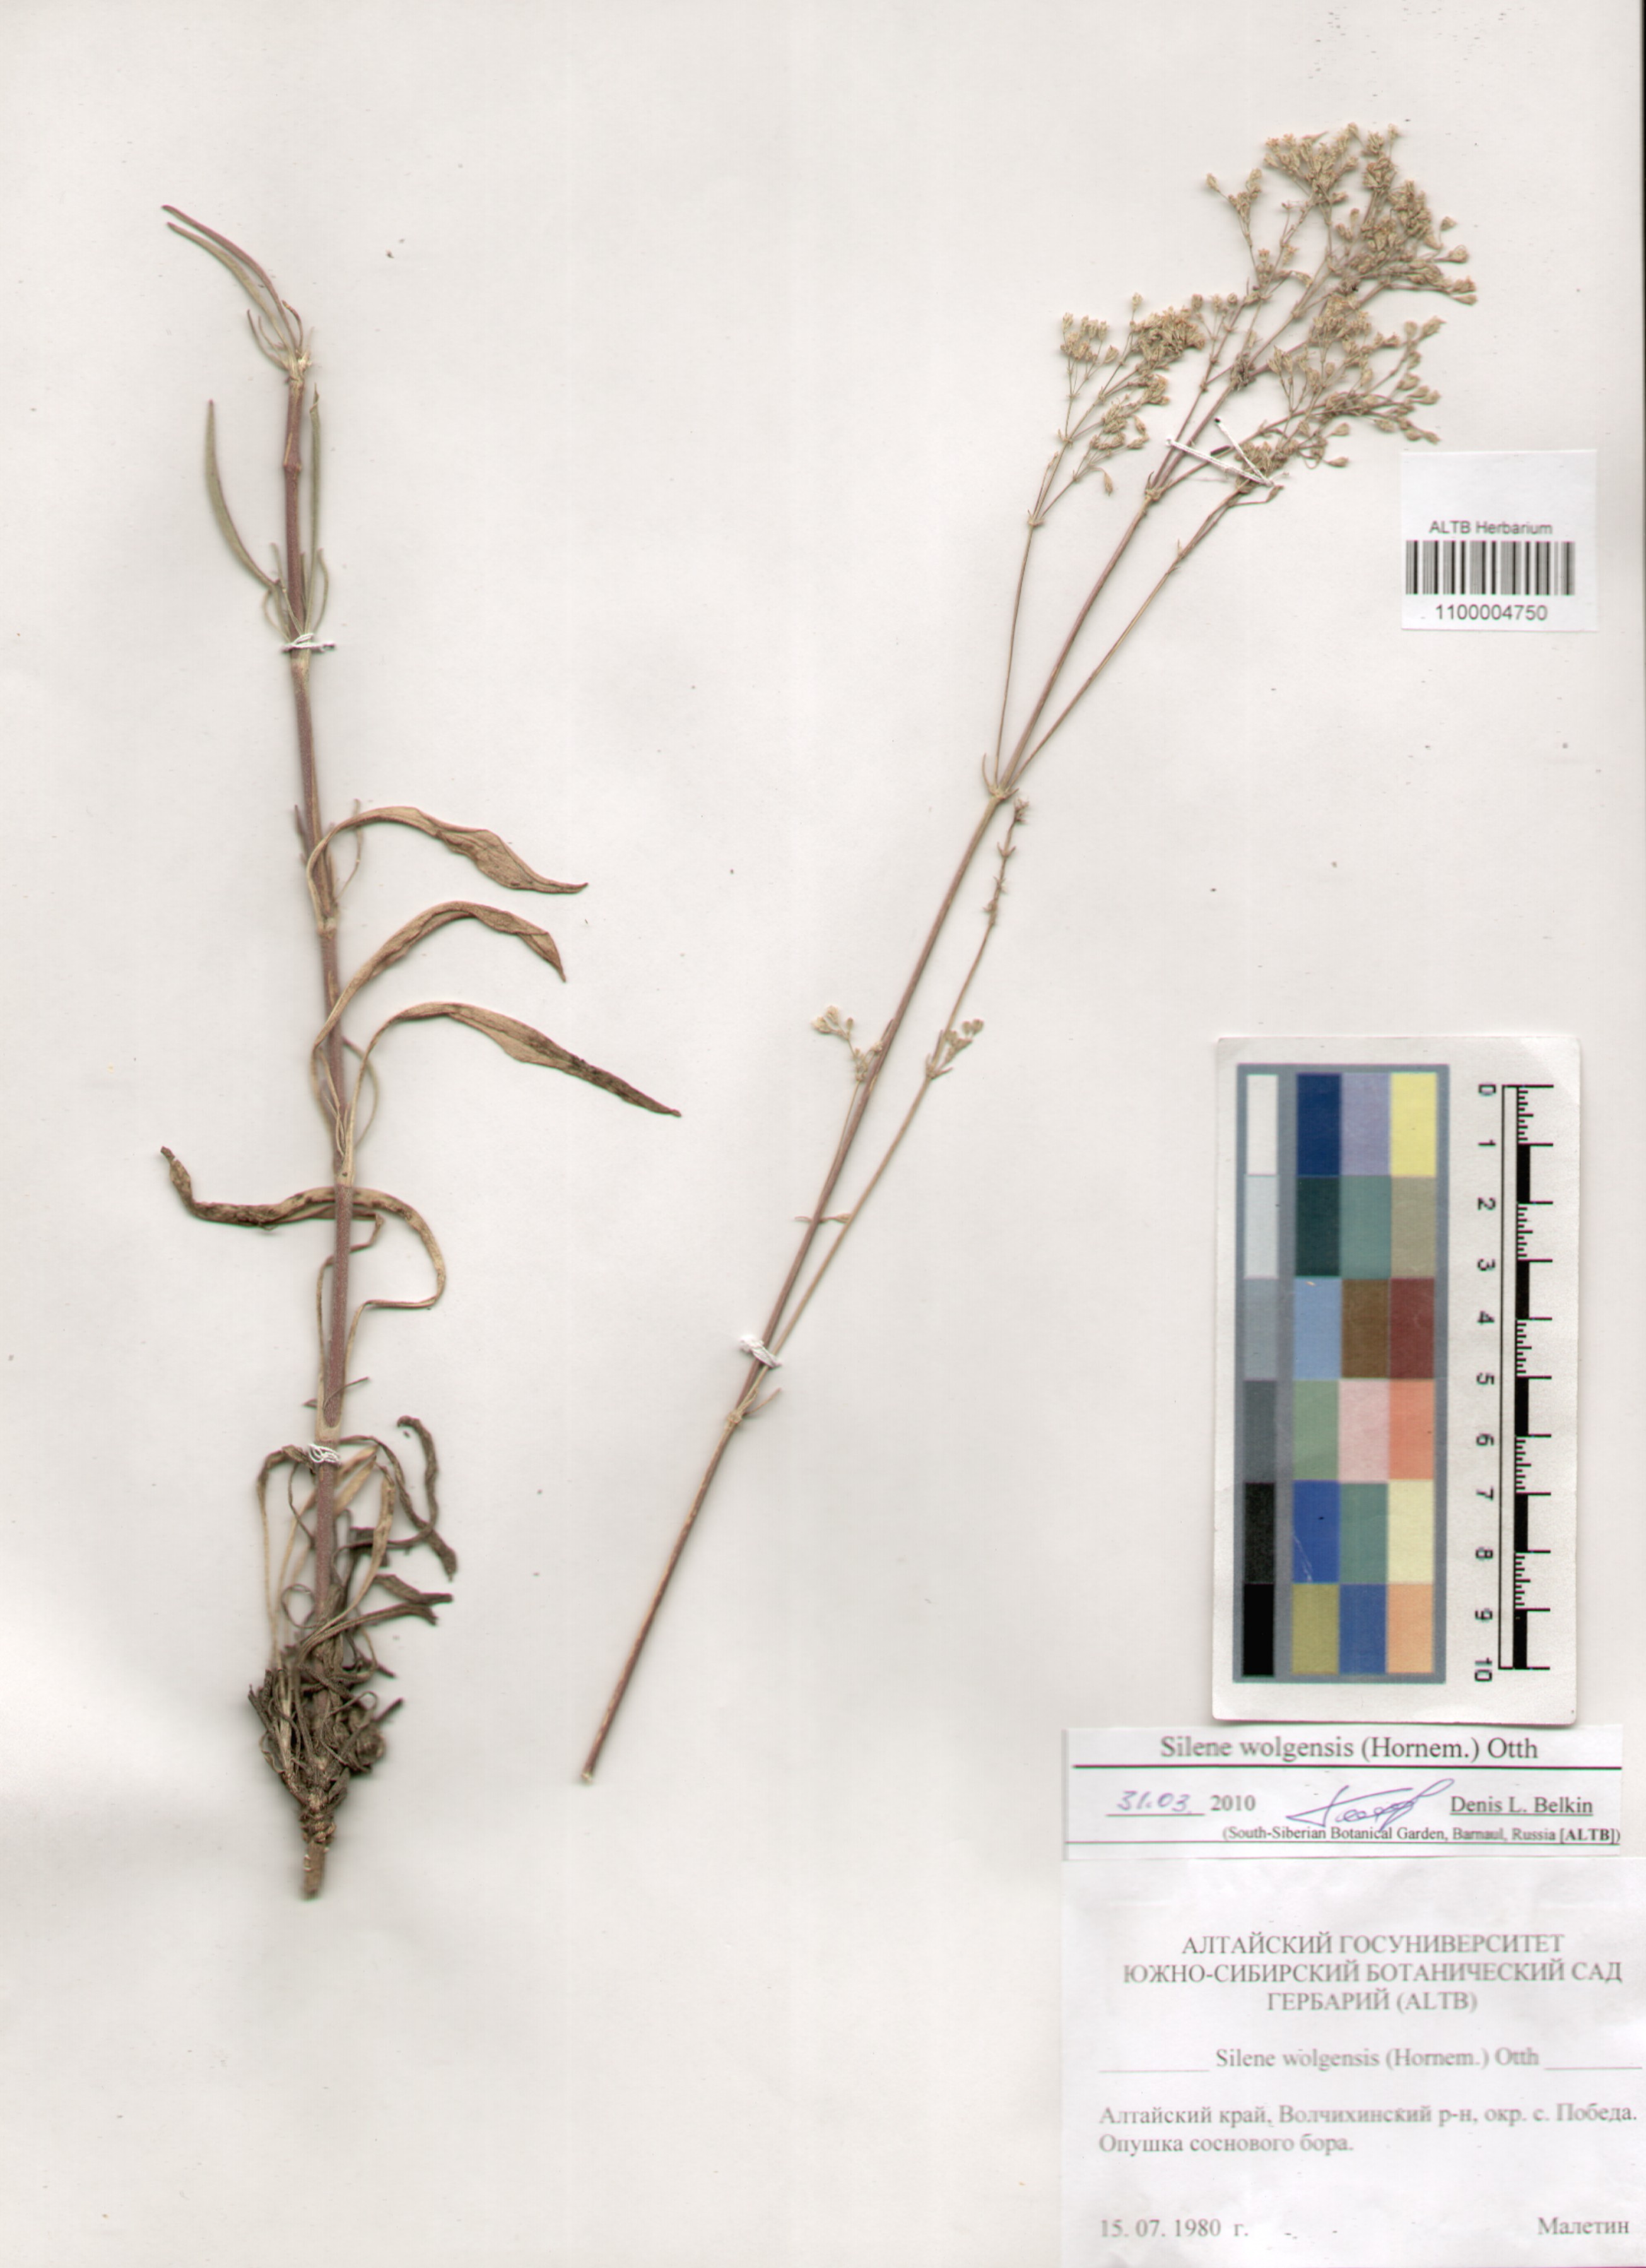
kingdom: Plantae
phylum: Tracheophyta
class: Magnoliopsida
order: Caryophyllales
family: Caryophyllaceae
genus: Silene
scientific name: Silene wolgensis
